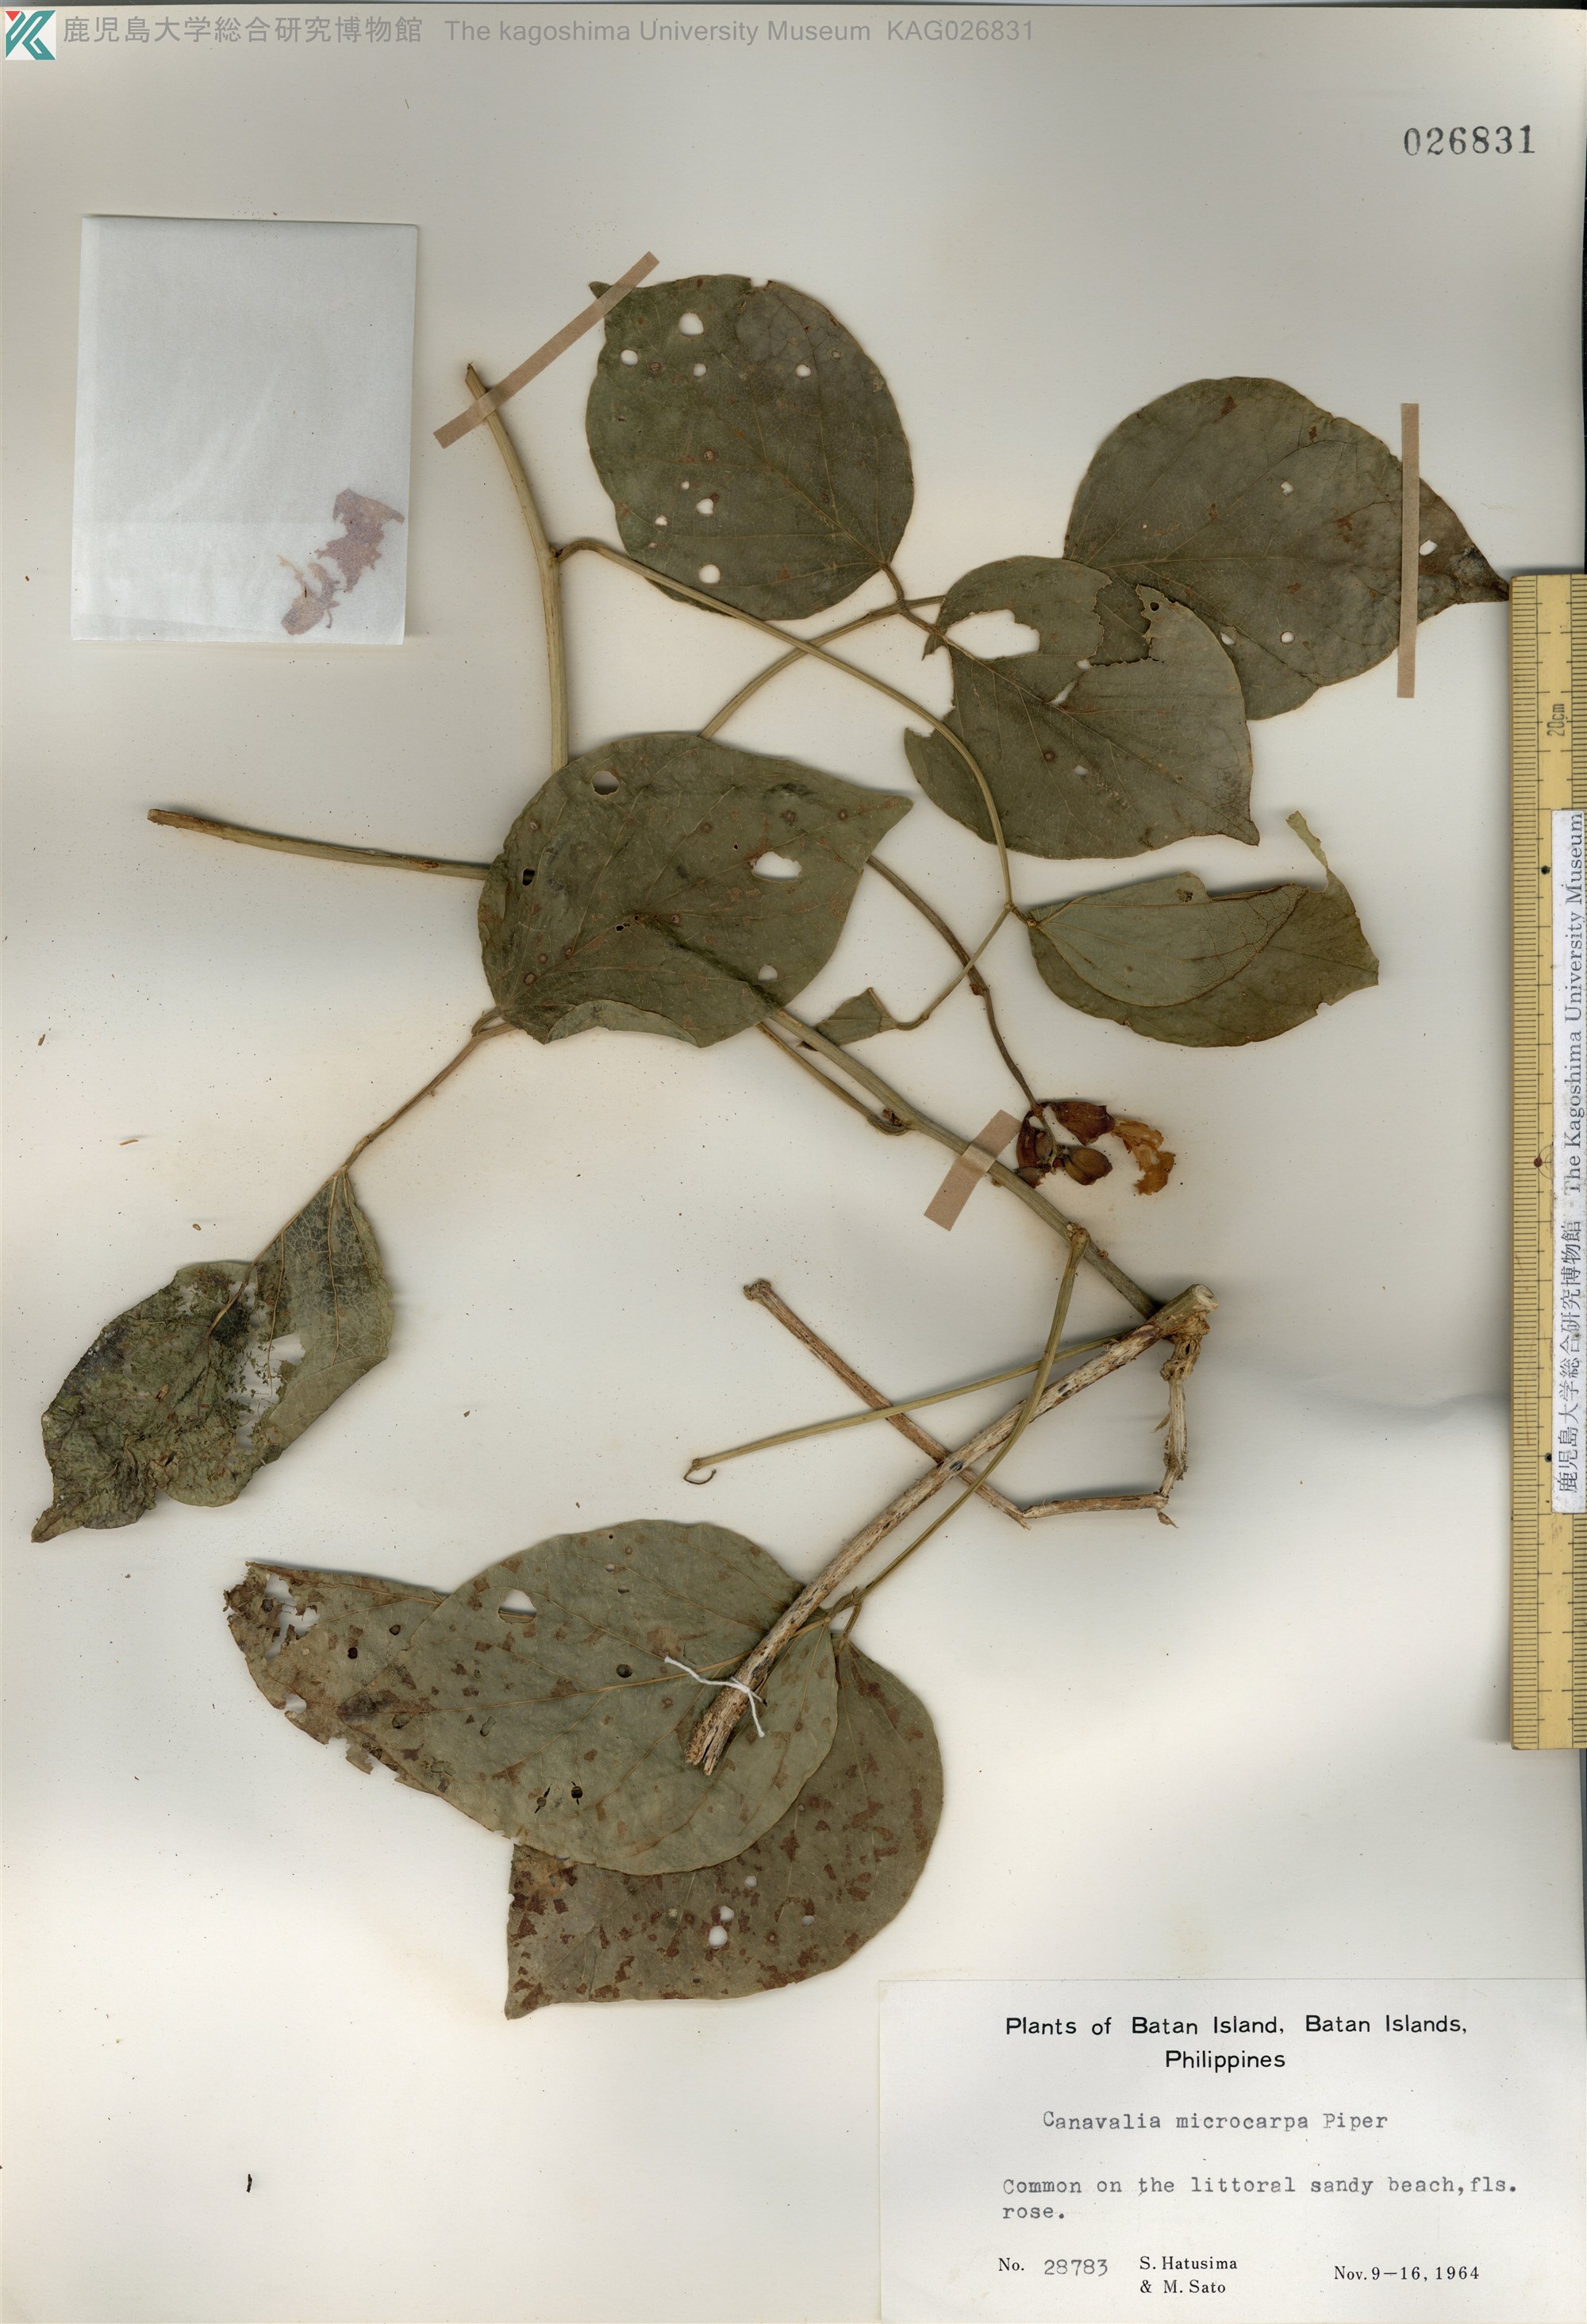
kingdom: Plantae
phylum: Tracheophyta
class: Magnoliopsida
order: Fabales
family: Fabaceae
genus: Canavalia
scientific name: Canavalia cathartica
